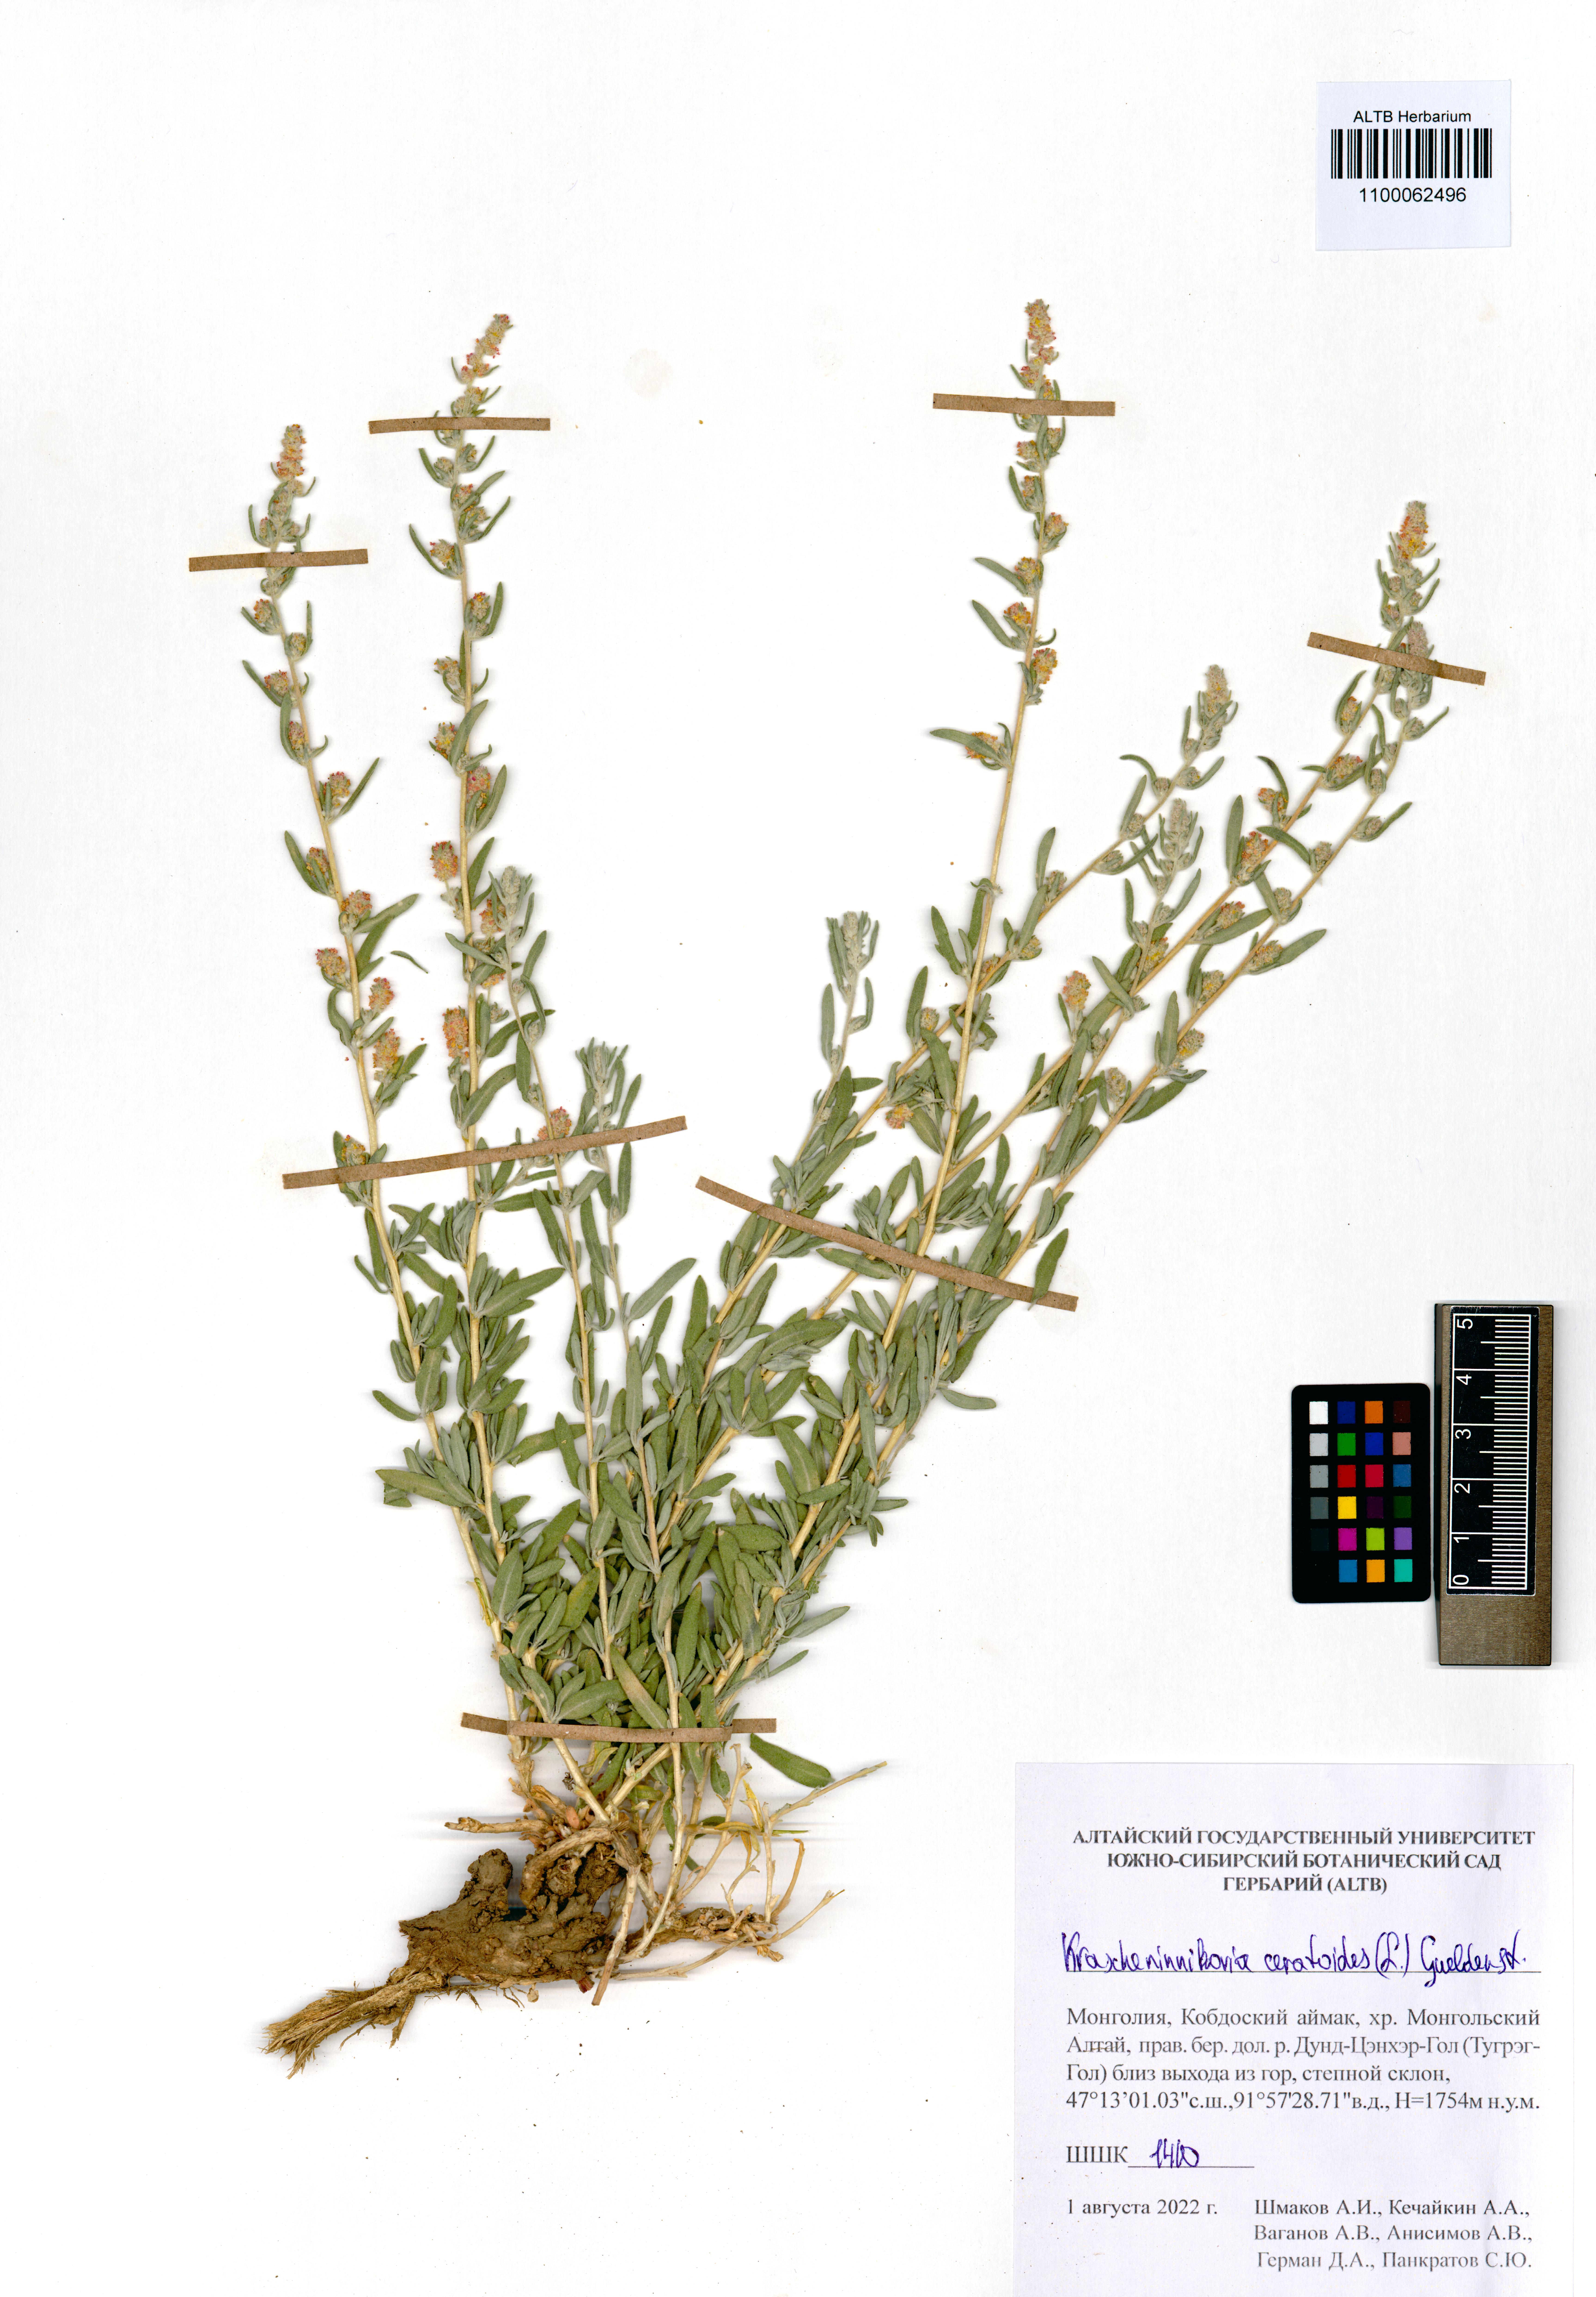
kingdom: Plantae
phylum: Tracheophyta
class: Magnoliopsida
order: Caryophyllales
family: Amaranthaceae
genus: Krascheninnikovia
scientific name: Krascheninnikovia ceratoides
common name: Pamirian winterfat
